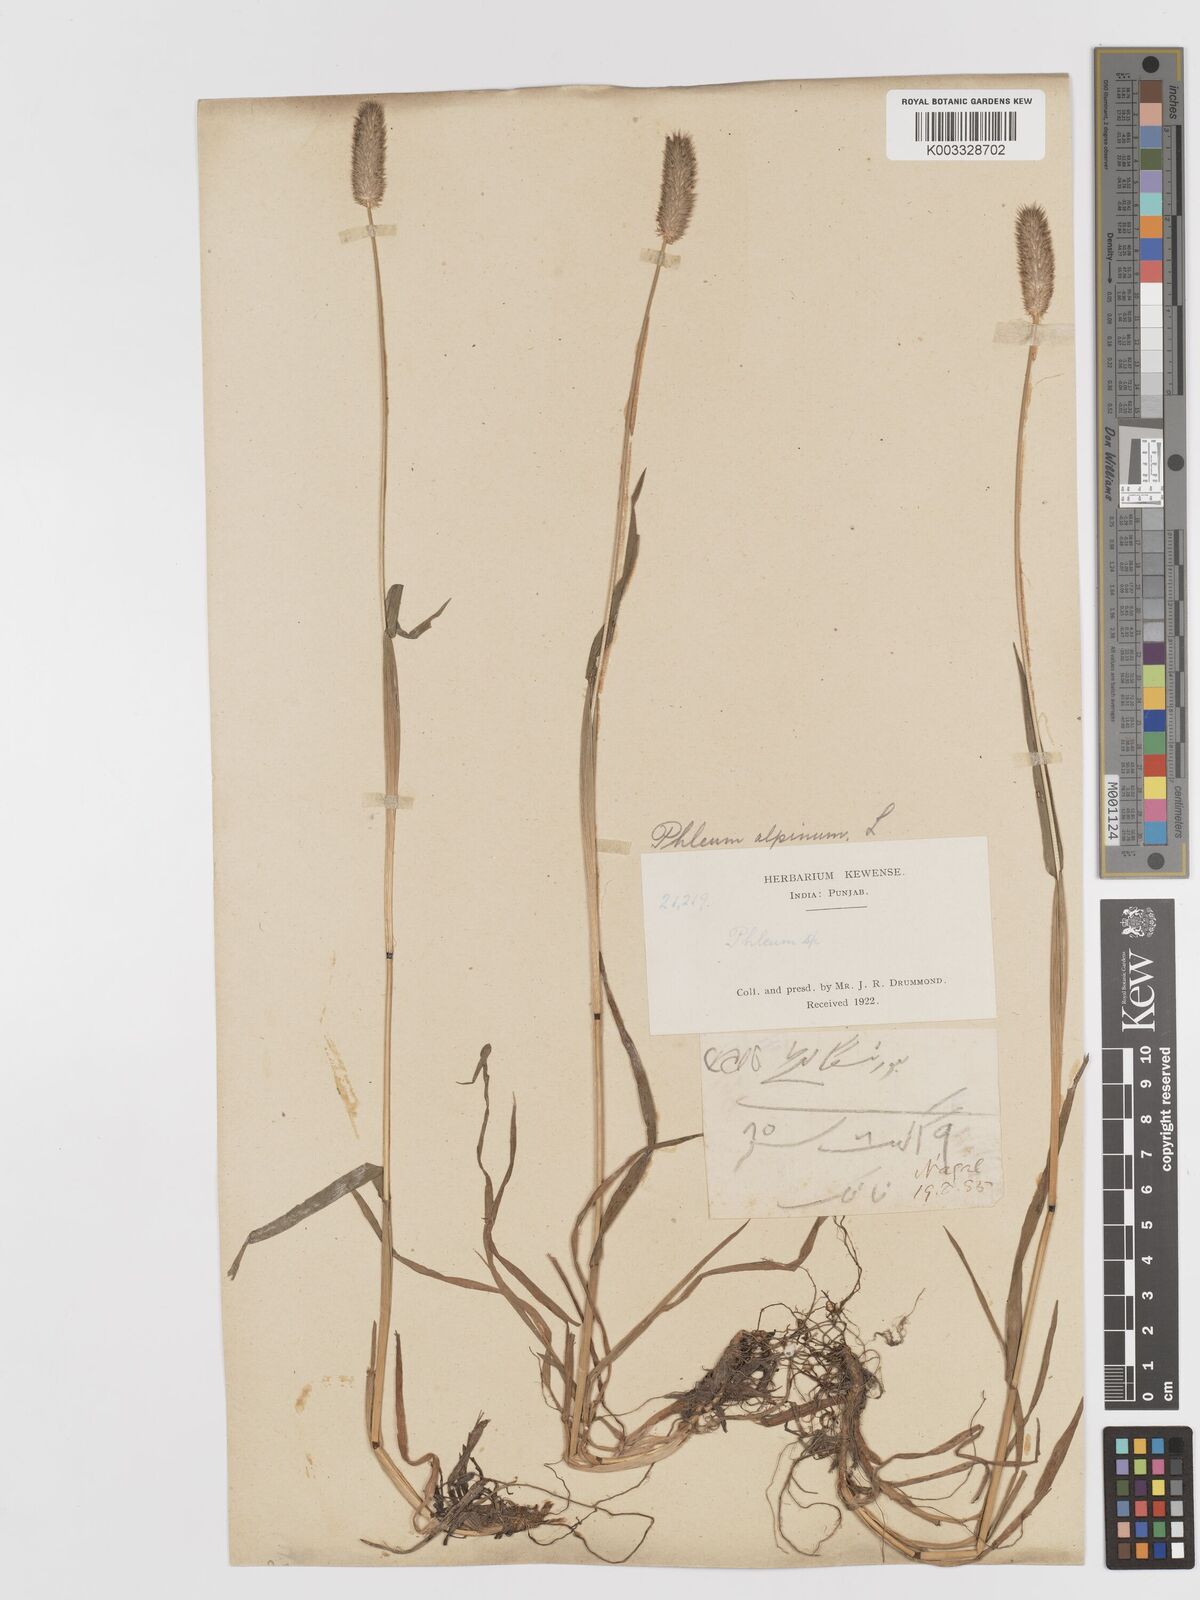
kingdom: Plantae
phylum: Tracheophyta
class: Liliopsida
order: Poales
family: Poaceae
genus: Phleum
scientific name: Phleum alpinum
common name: Alpine cat's-tail
